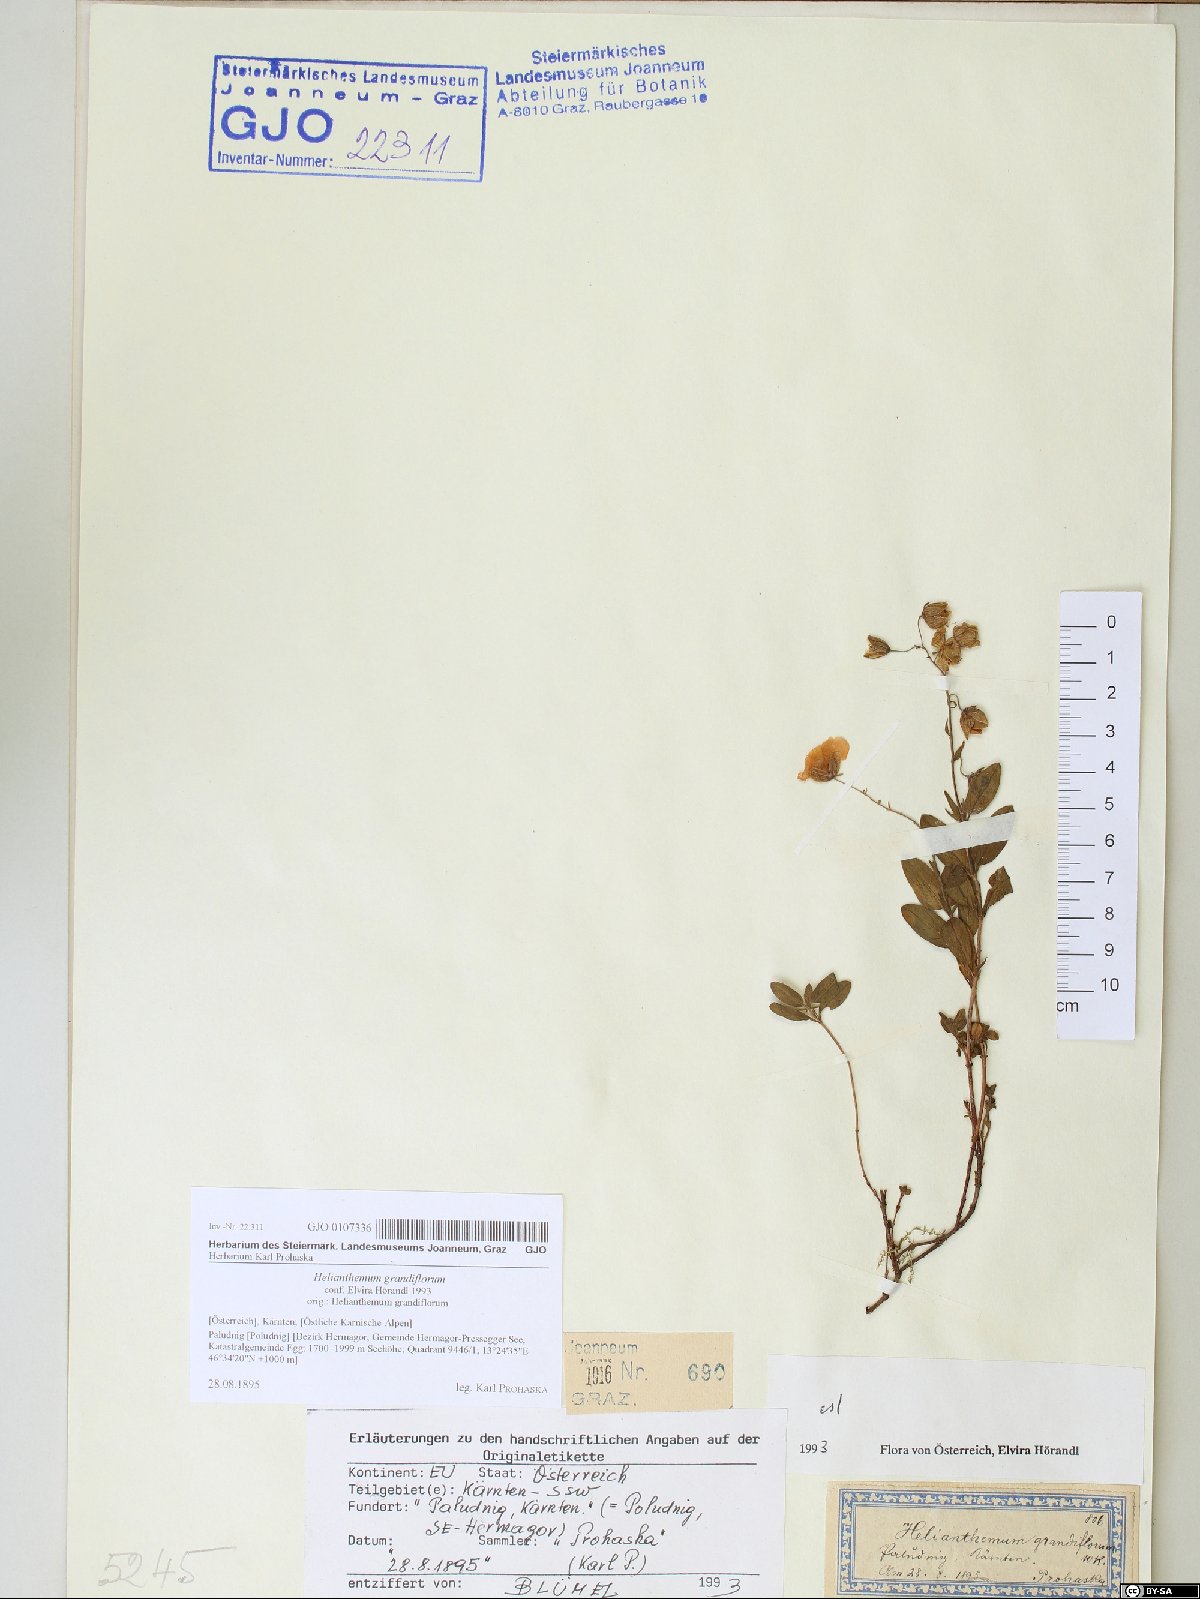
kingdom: Plantae
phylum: Tracheophyta
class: Magnoliopsida
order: Malvales
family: Cistaceae
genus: Helianthemum
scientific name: Helianthemum nummularium
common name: Common rock-rose
